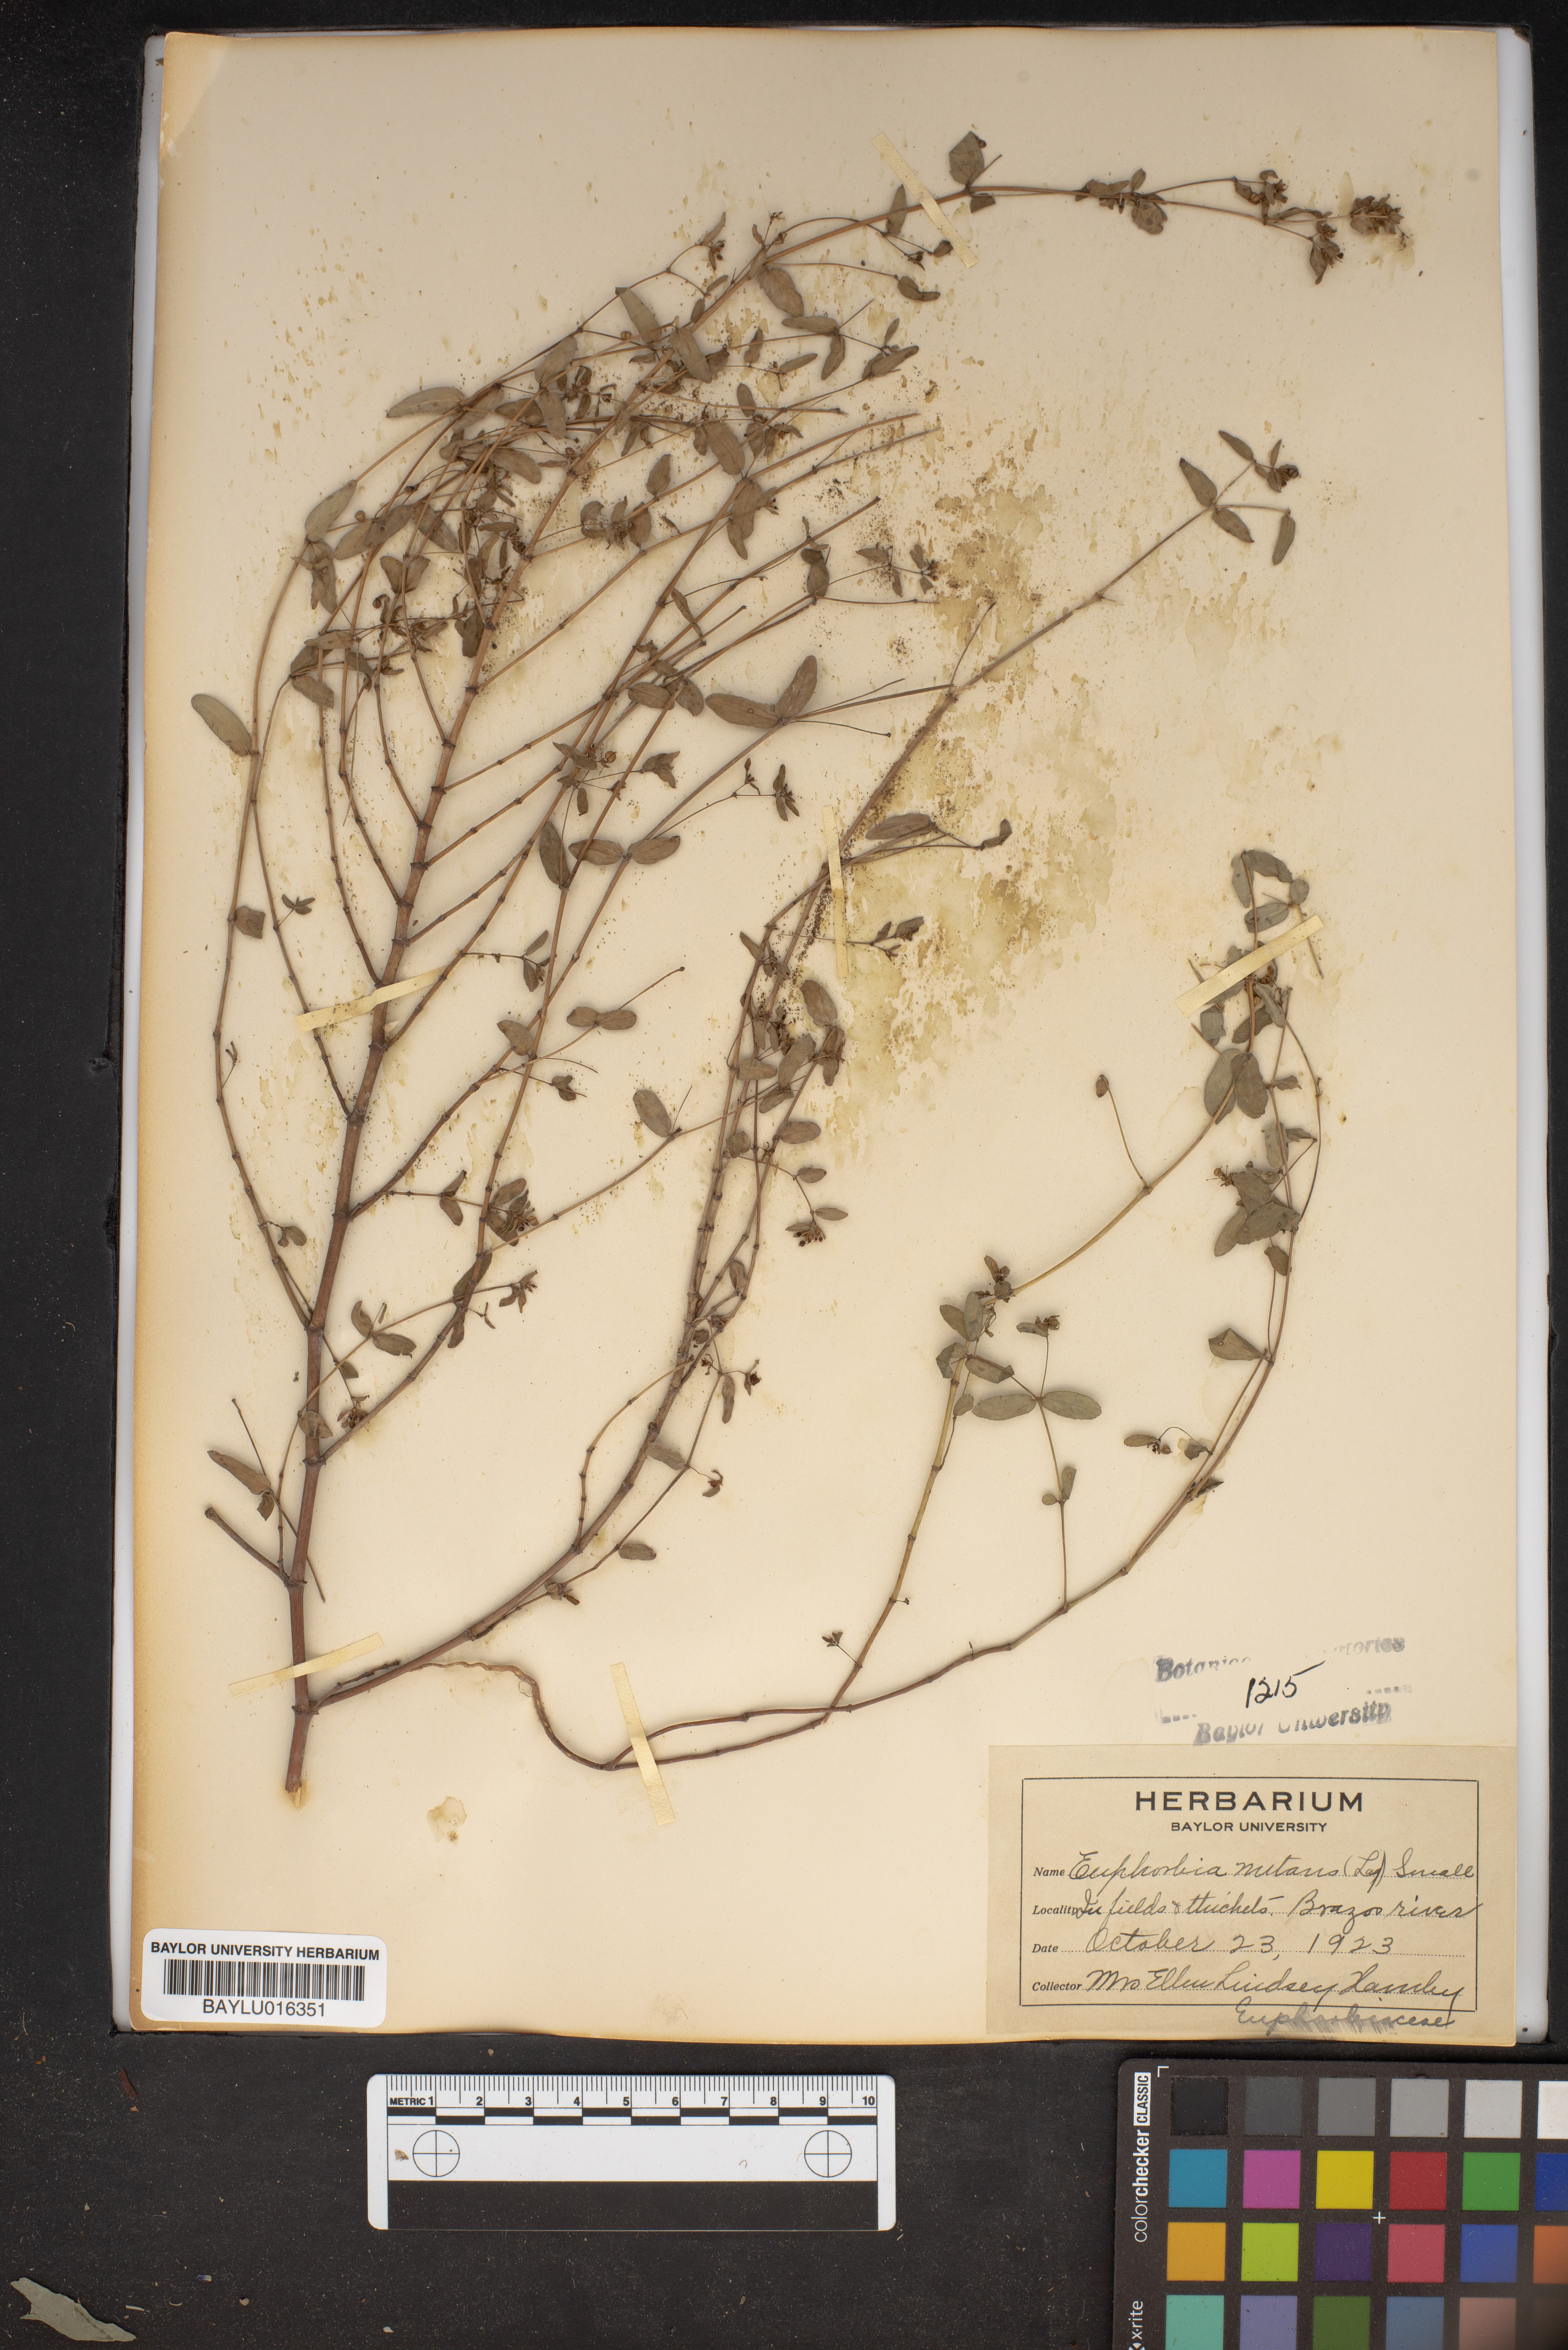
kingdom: Plantae
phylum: Tracheophyta
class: Magnoliopsida
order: Malpighiales
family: Euphorbiaceae
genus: Euphorbia
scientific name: Euphorbia nutans
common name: Eyebane
